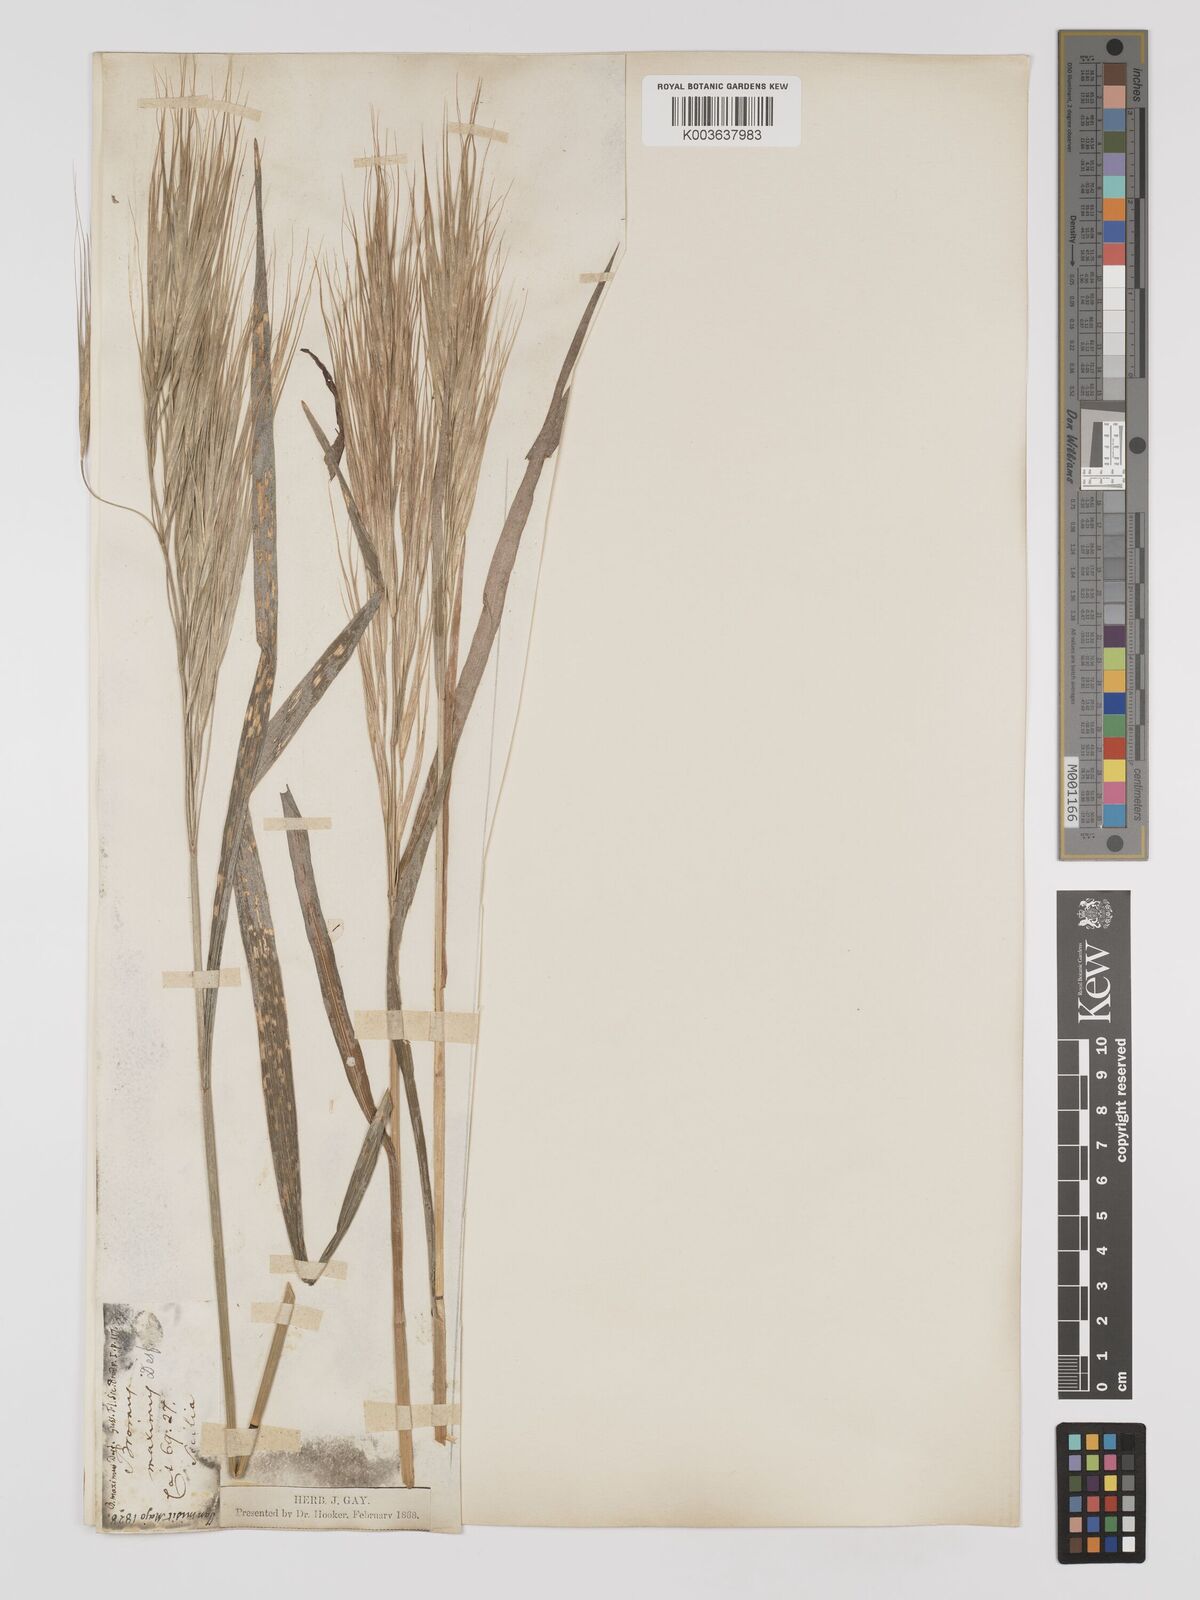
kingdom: Plantae
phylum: Tracheophyta
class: Liliopsida
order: Poales
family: Poaceae
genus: Bromus
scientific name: Bromus
